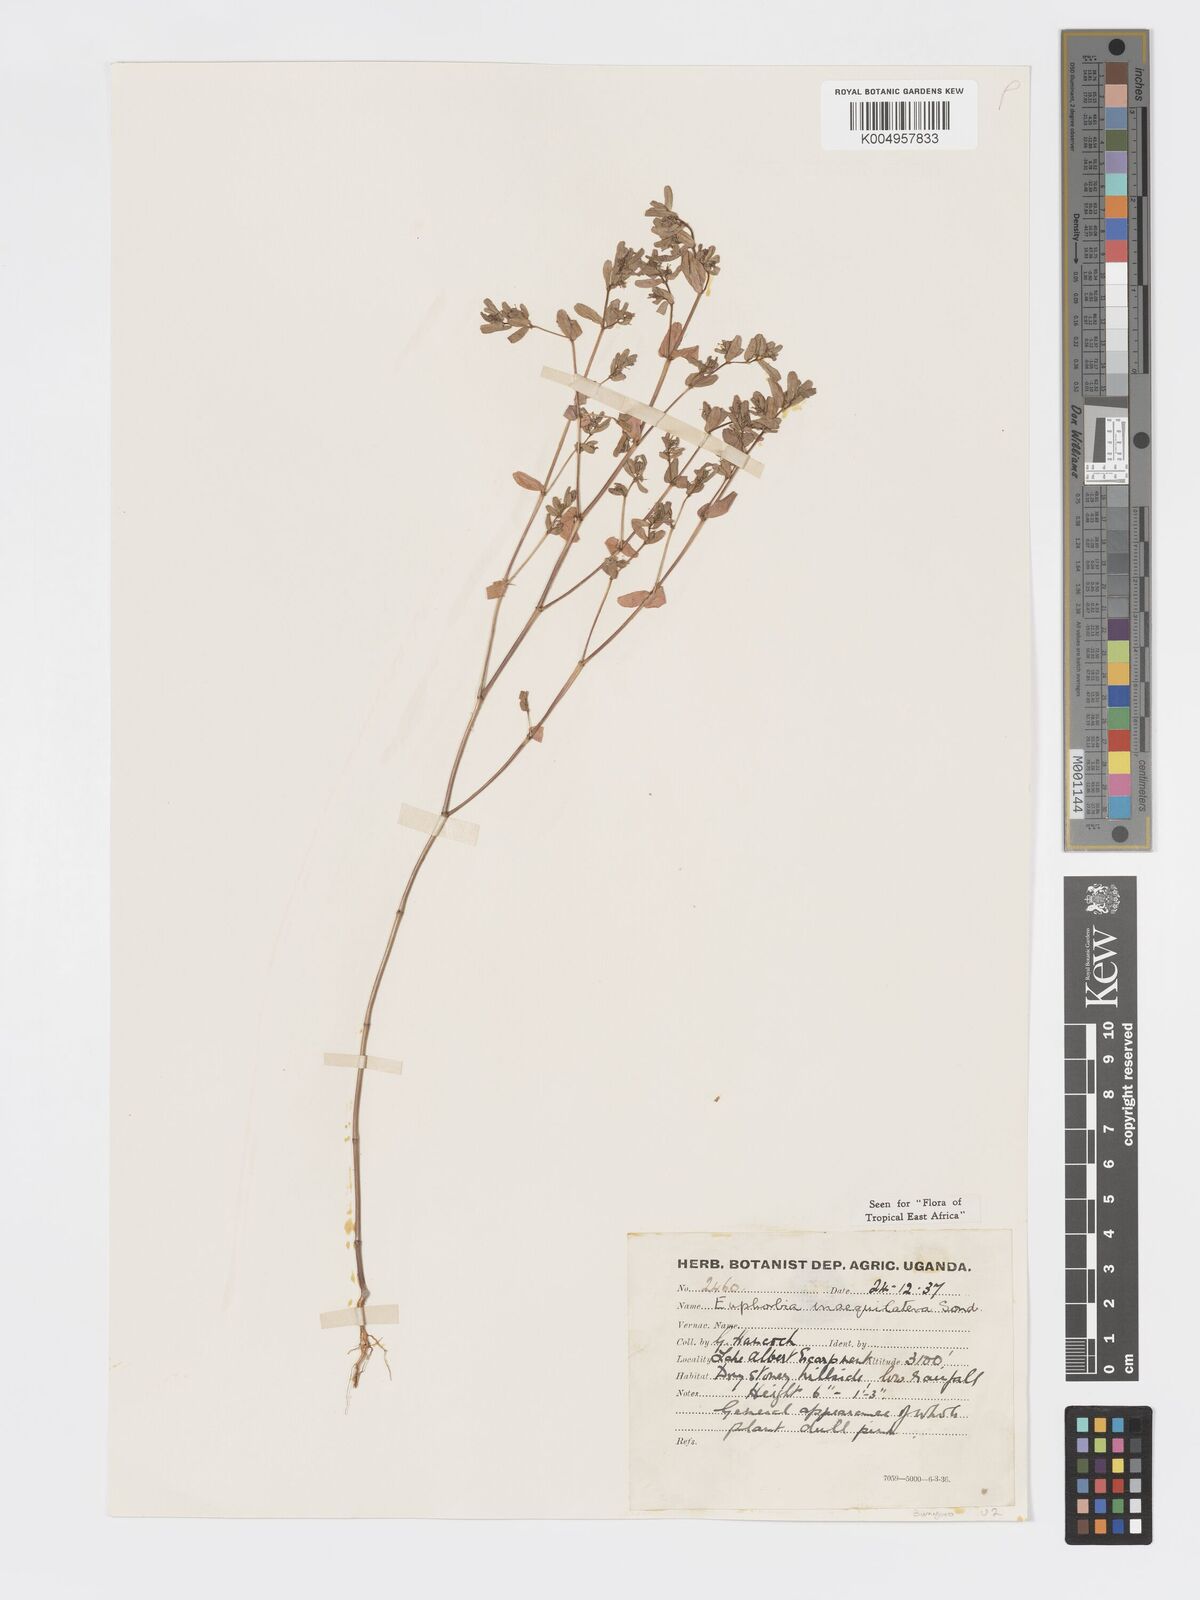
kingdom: Plantae
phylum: Tracheophyta
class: Magnoliopsida
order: Malpighiales
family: Euphorbiaceae
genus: Euphorbia
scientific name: Euphorbia inaequilatera
